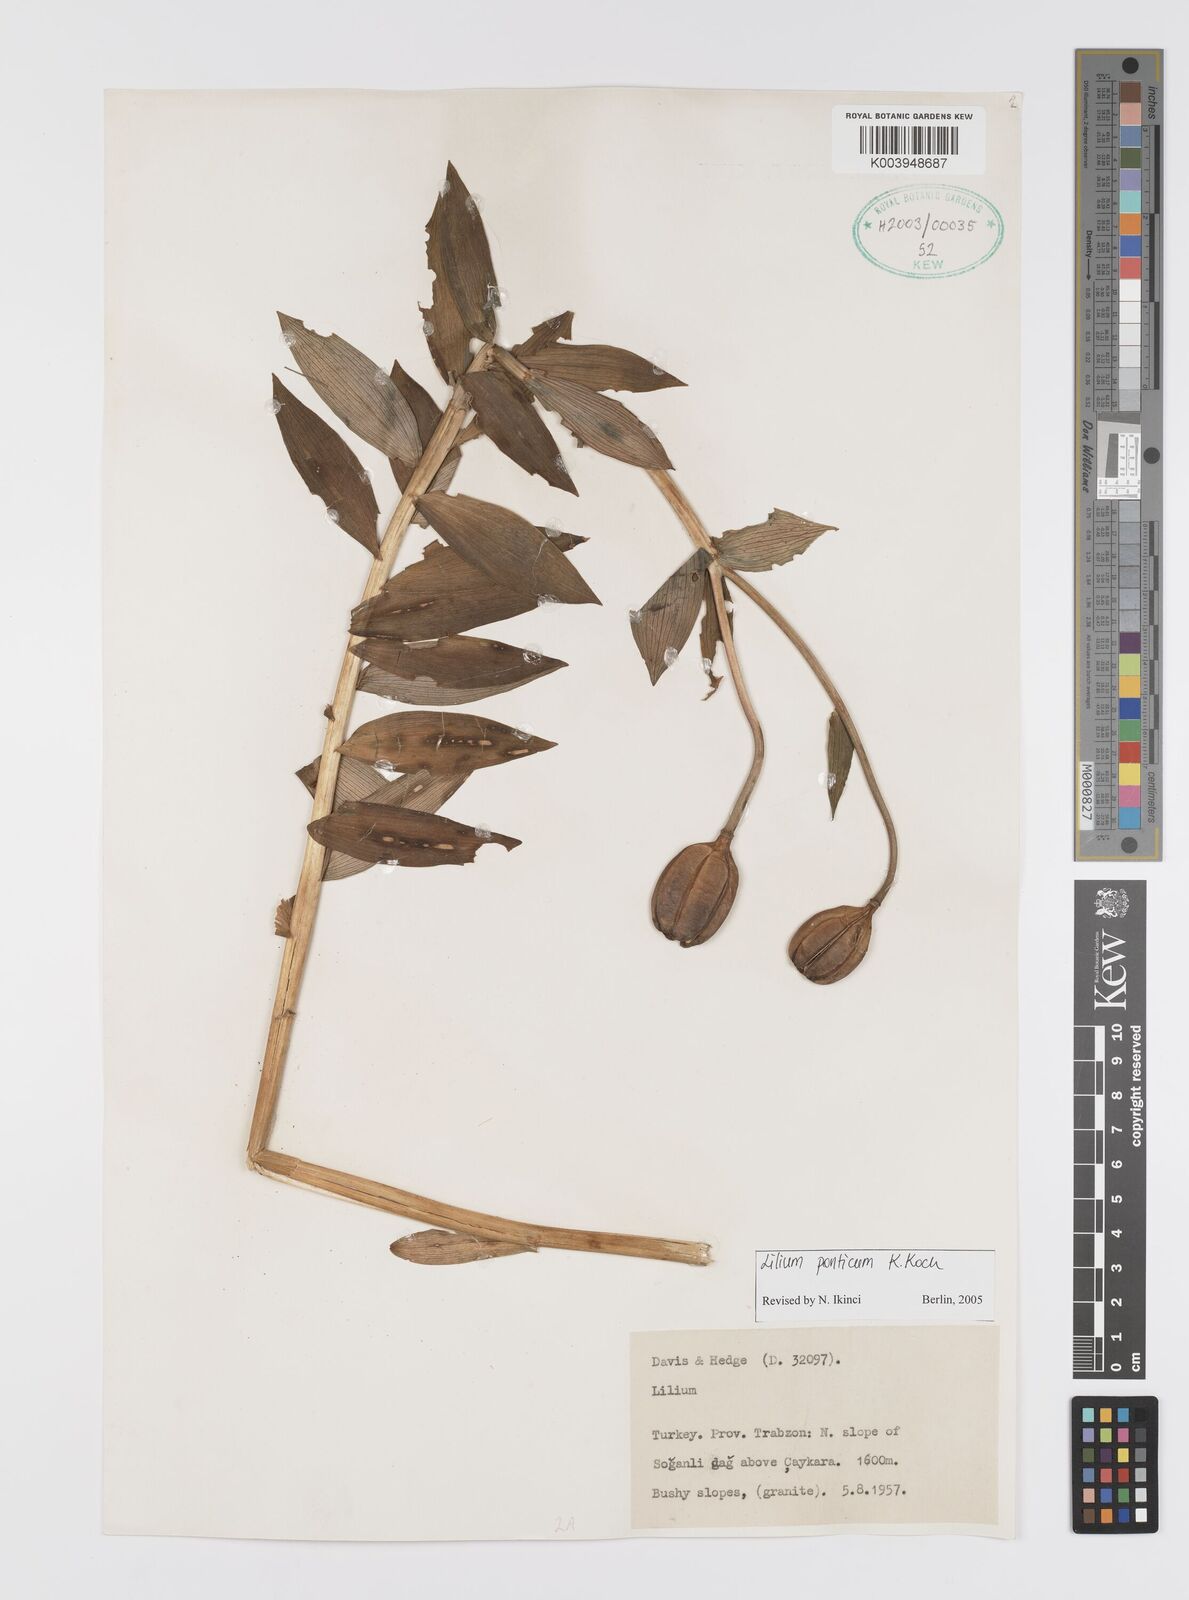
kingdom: Plantae
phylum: Tracheophyta
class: Liliopsida
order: Liliales
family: Liliaceae
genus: Lilium
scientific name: Lilium ponticum
